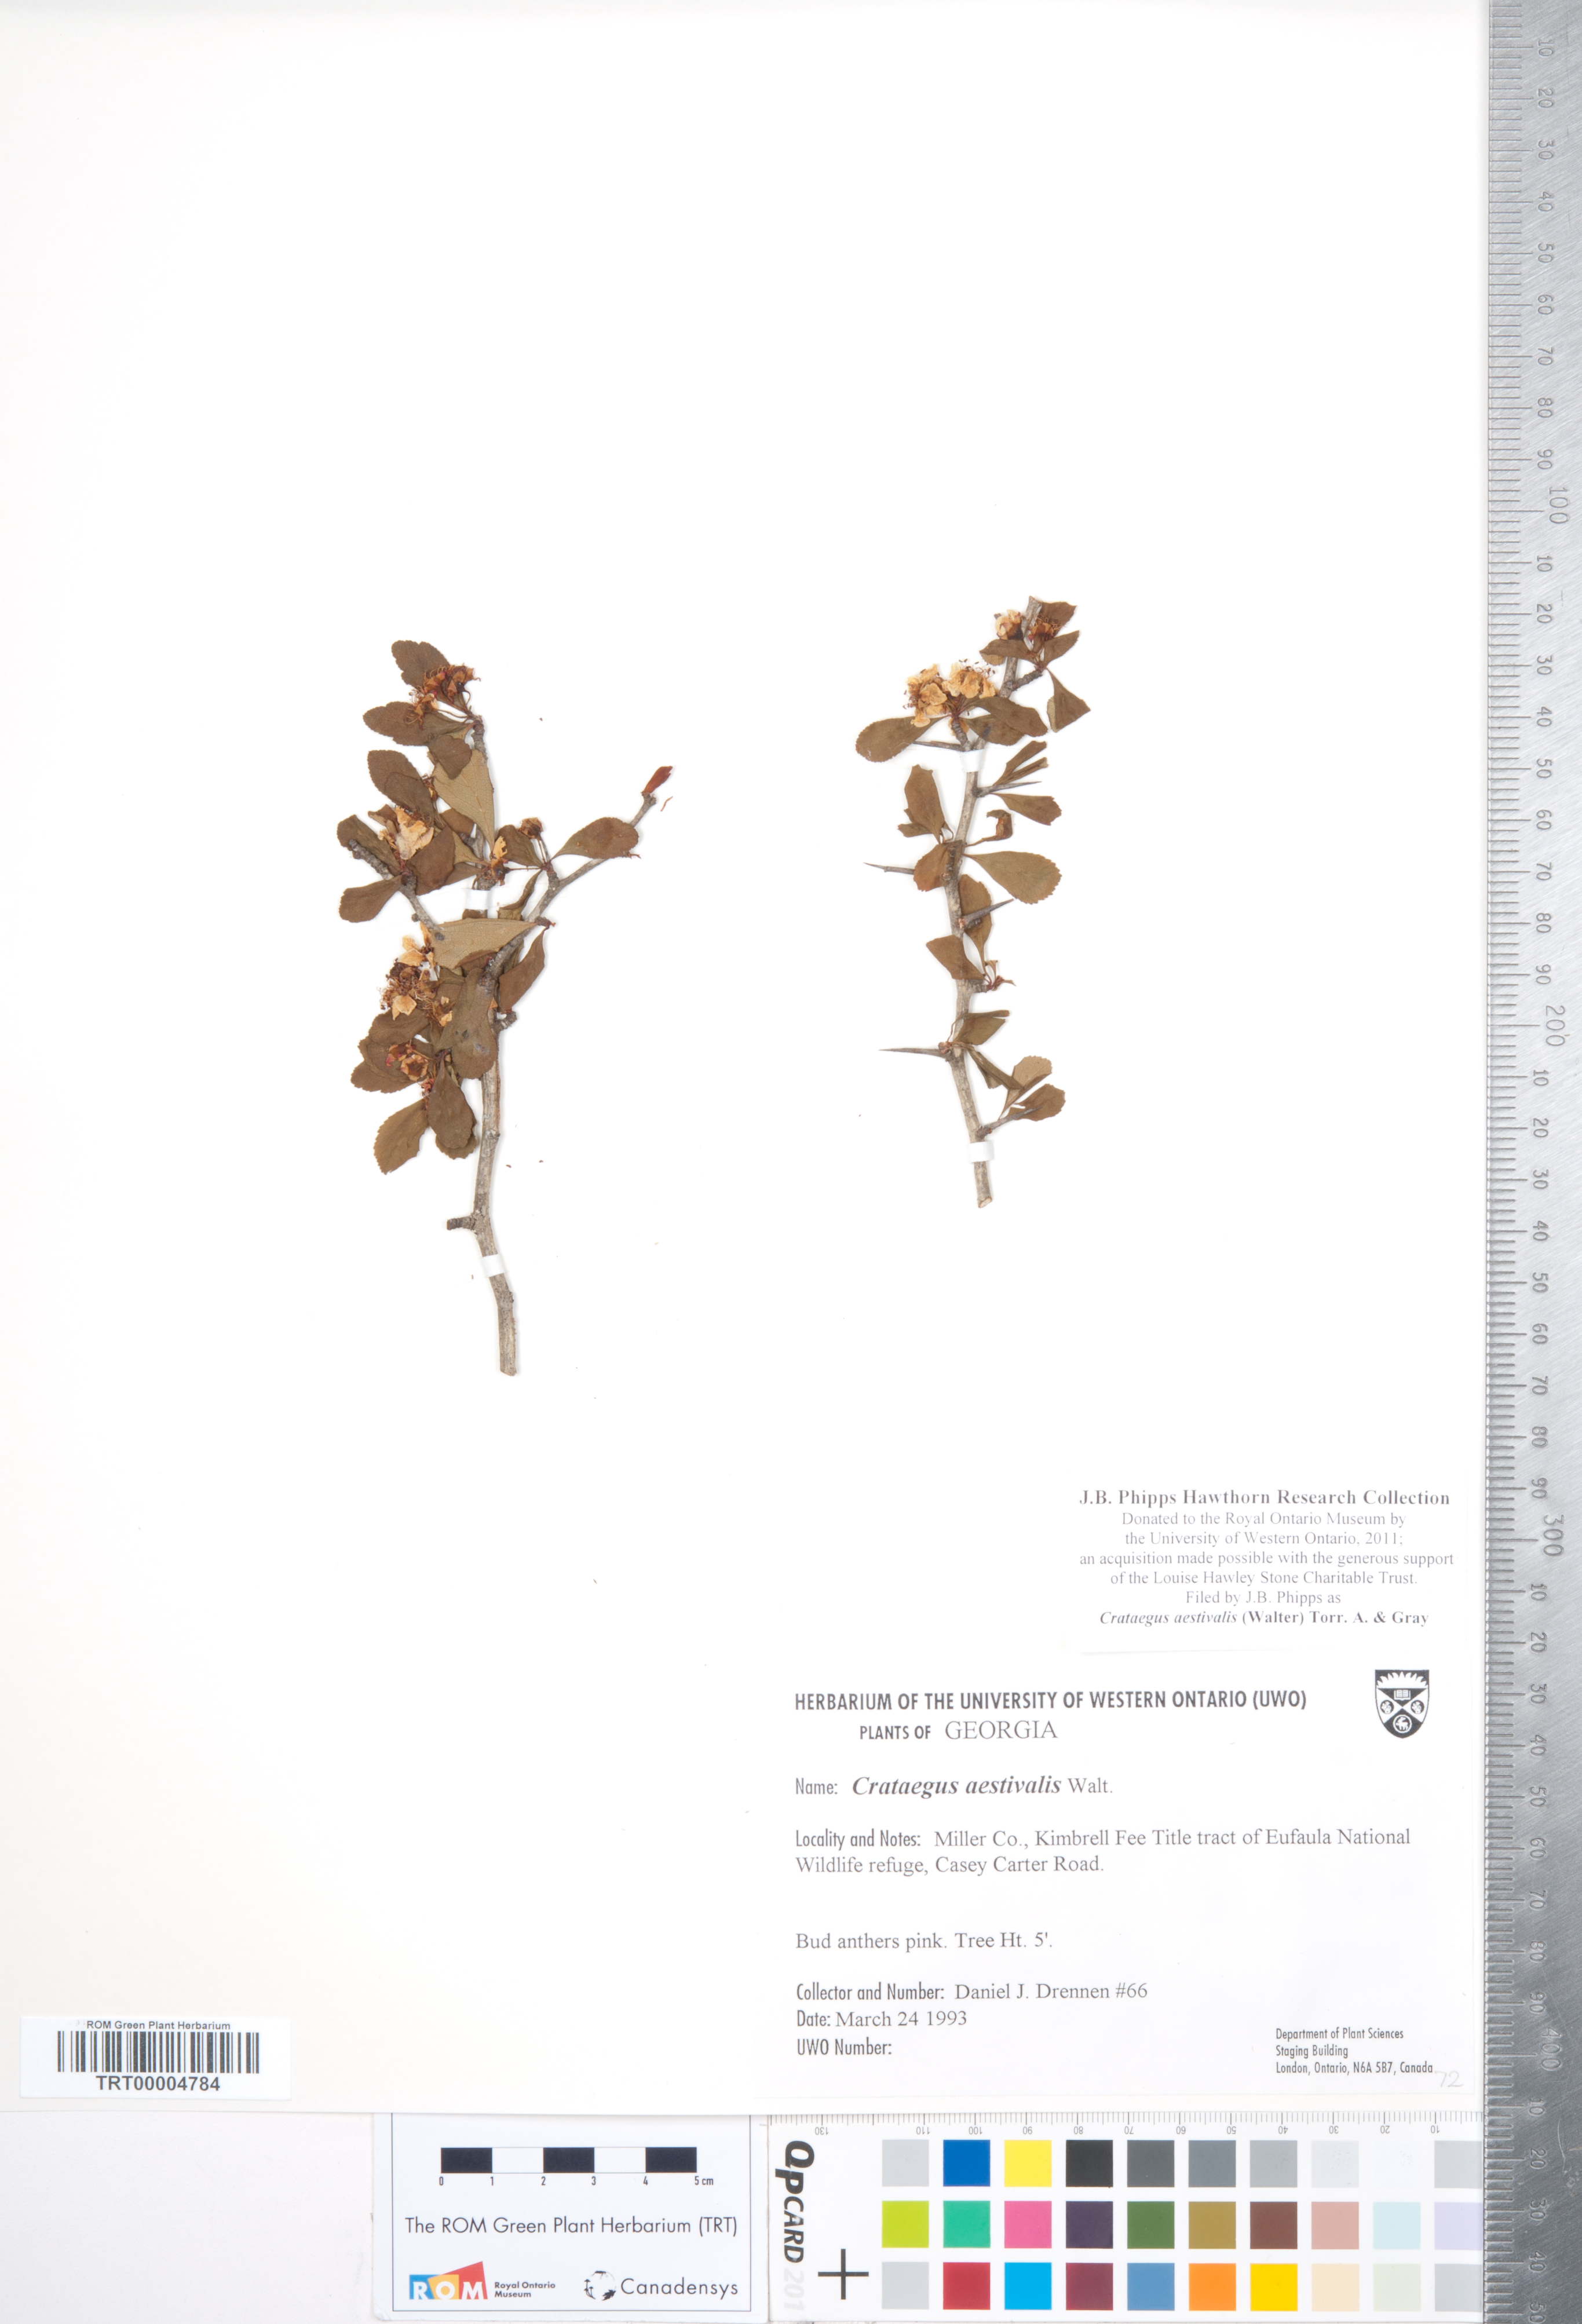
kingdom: Plantae
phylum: Tracheophyta
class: Magnoliopsida
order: Rosales
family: Rosaceae
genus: Crataegus
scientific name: Crataegus aestivalis
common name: Mayhaw
